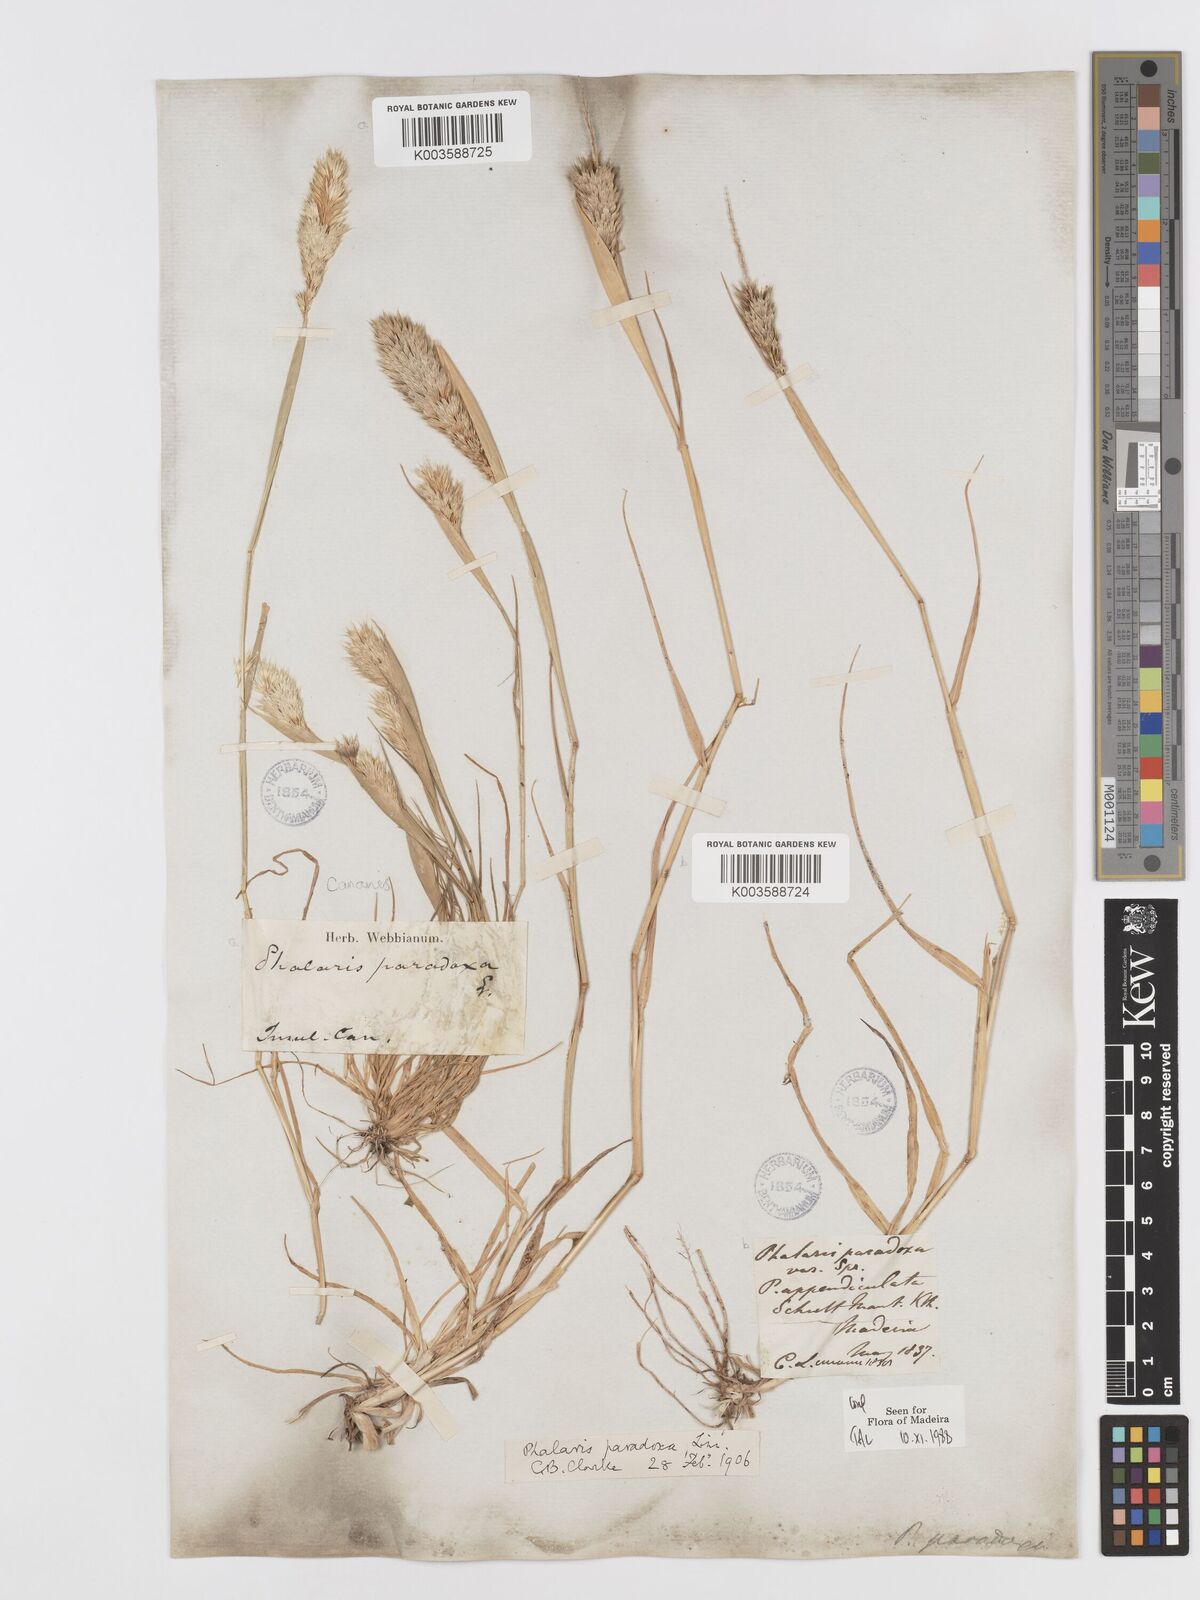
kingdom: Plantae
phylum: Tracheophyta
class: Liliopsida
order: Poales
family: Poaceae
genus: Phalaris
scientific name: Phalaris paradoxa
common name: Awned canary-grass
